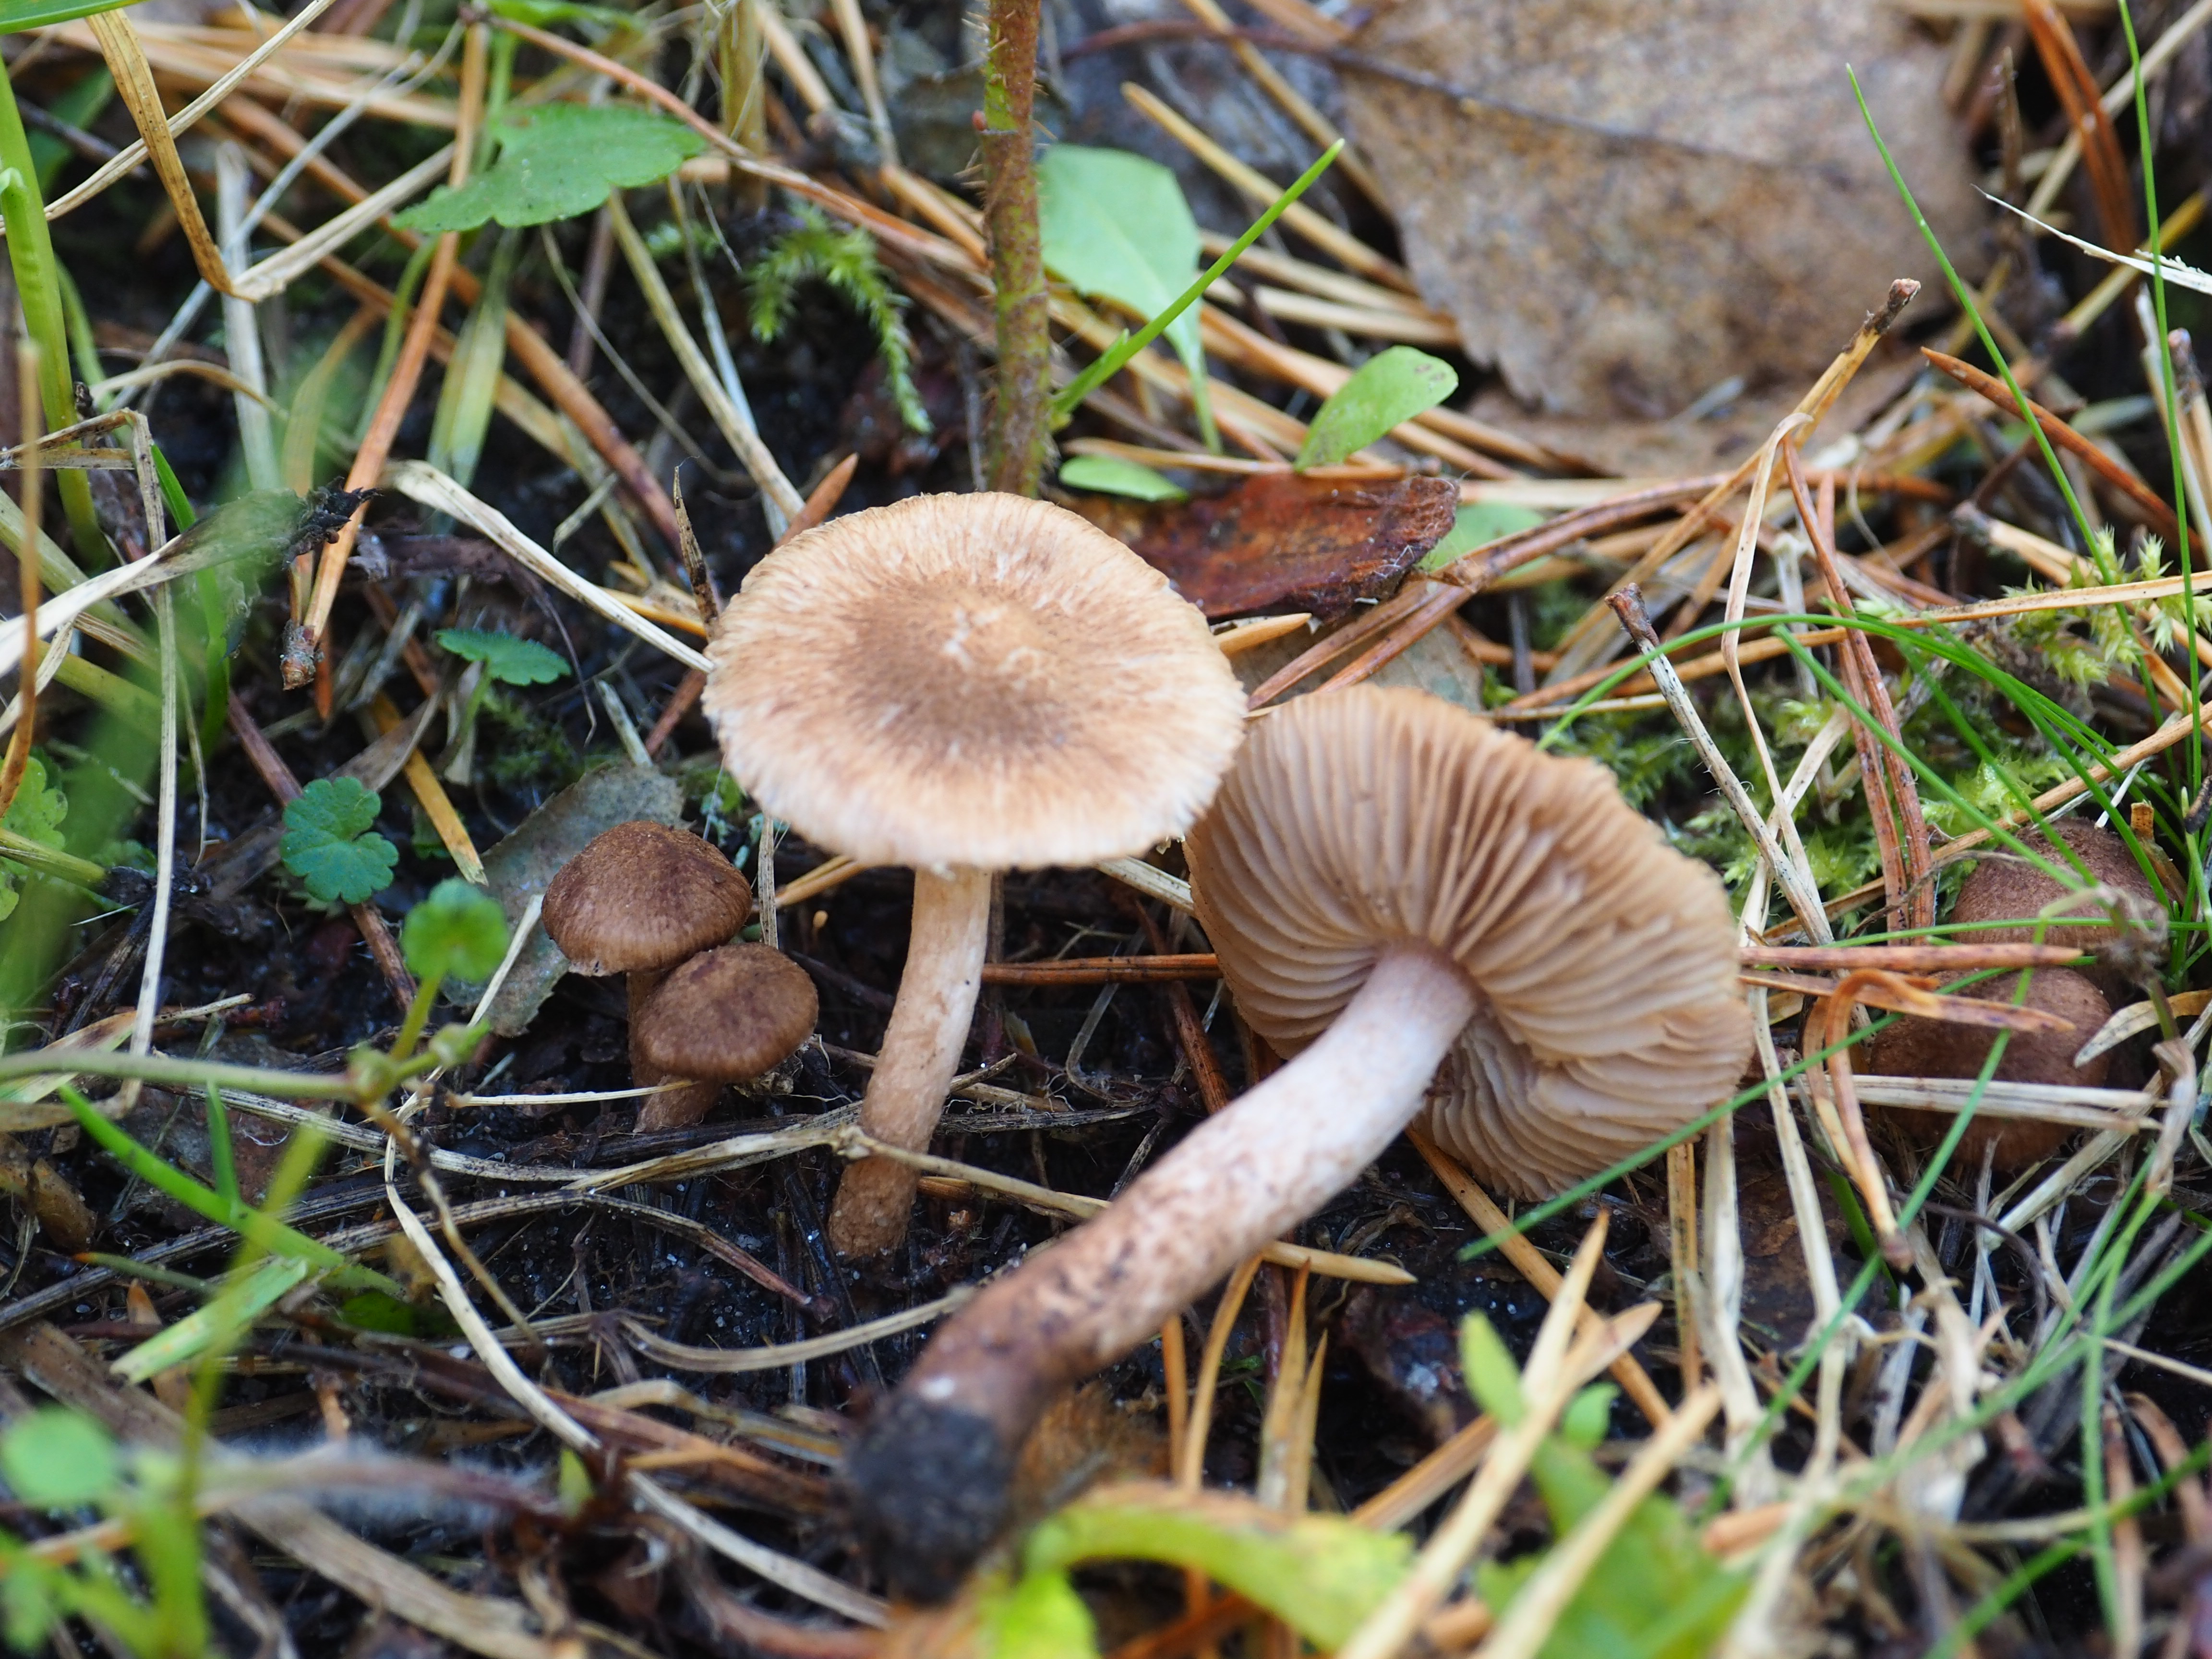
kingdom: Fungi
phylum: Basidiomycota
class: Agaricomycetes
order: Agaricales
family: Inocybaceae
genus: Inocybe
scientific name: Inocybe
